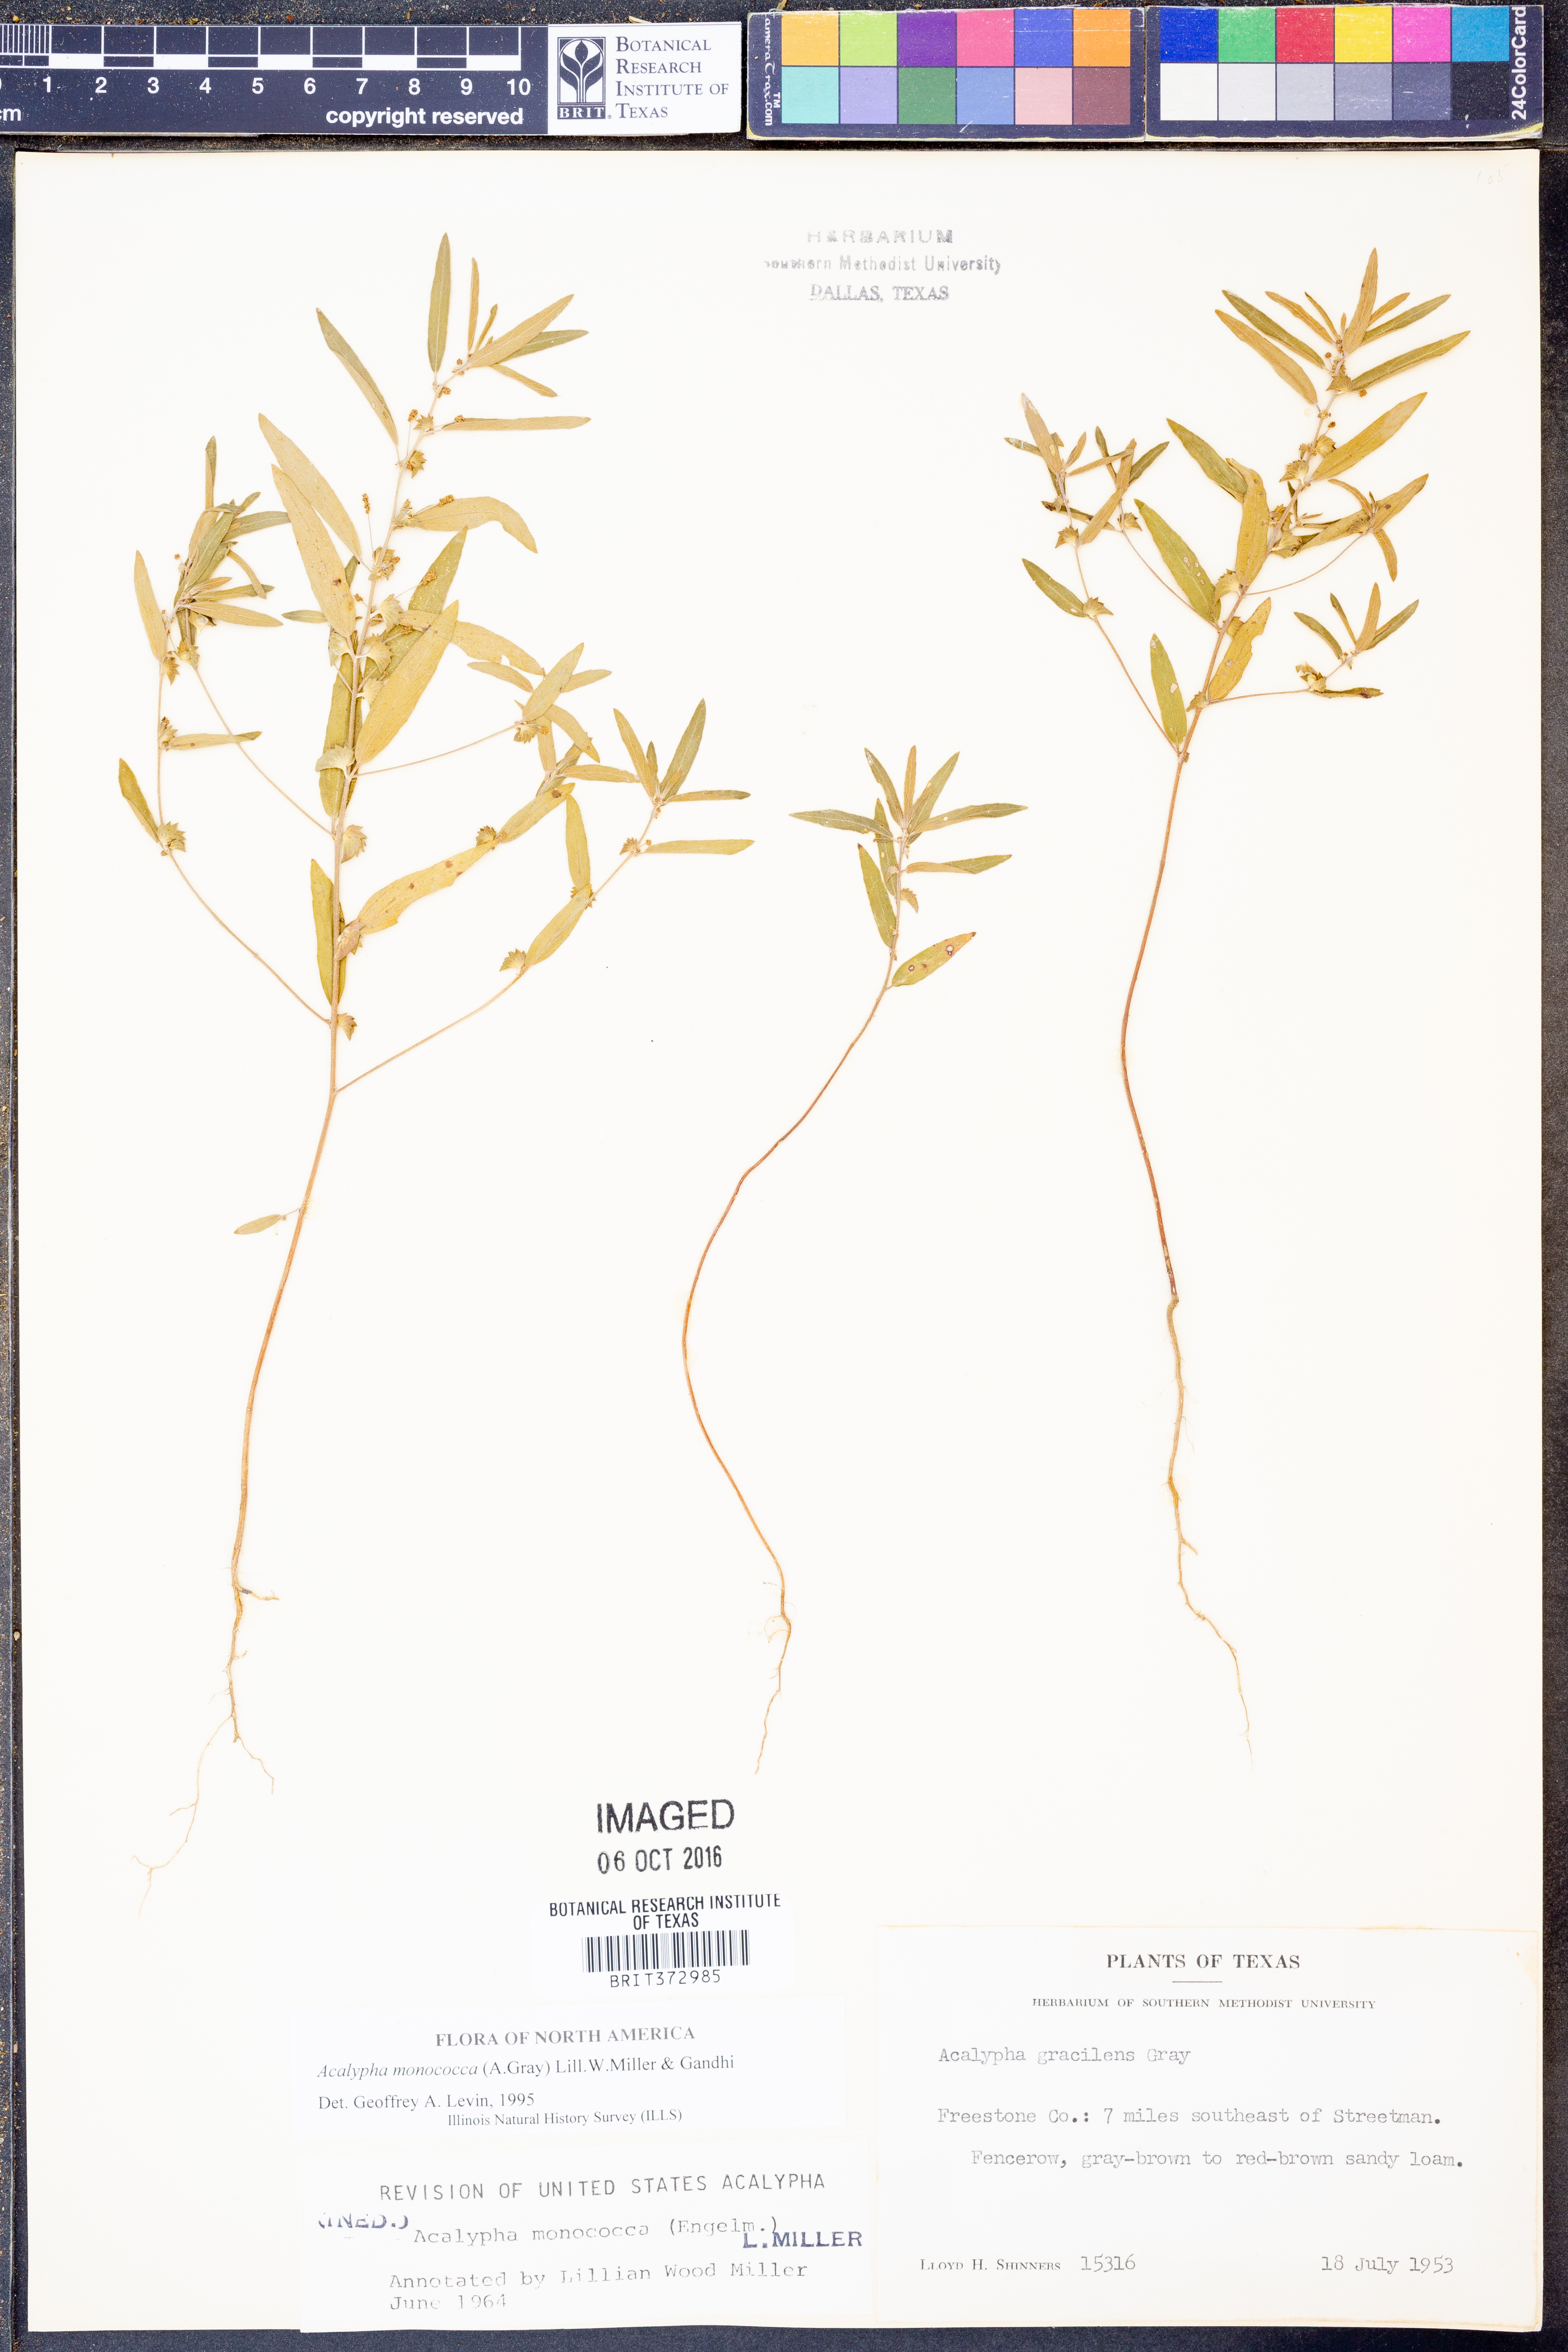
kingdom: Plantae
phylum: Tracheophyta
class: Magnoliopsida
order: Malpighiales
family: Euphorbiaceae
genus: Acalypha
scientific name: Acalypha monococca
